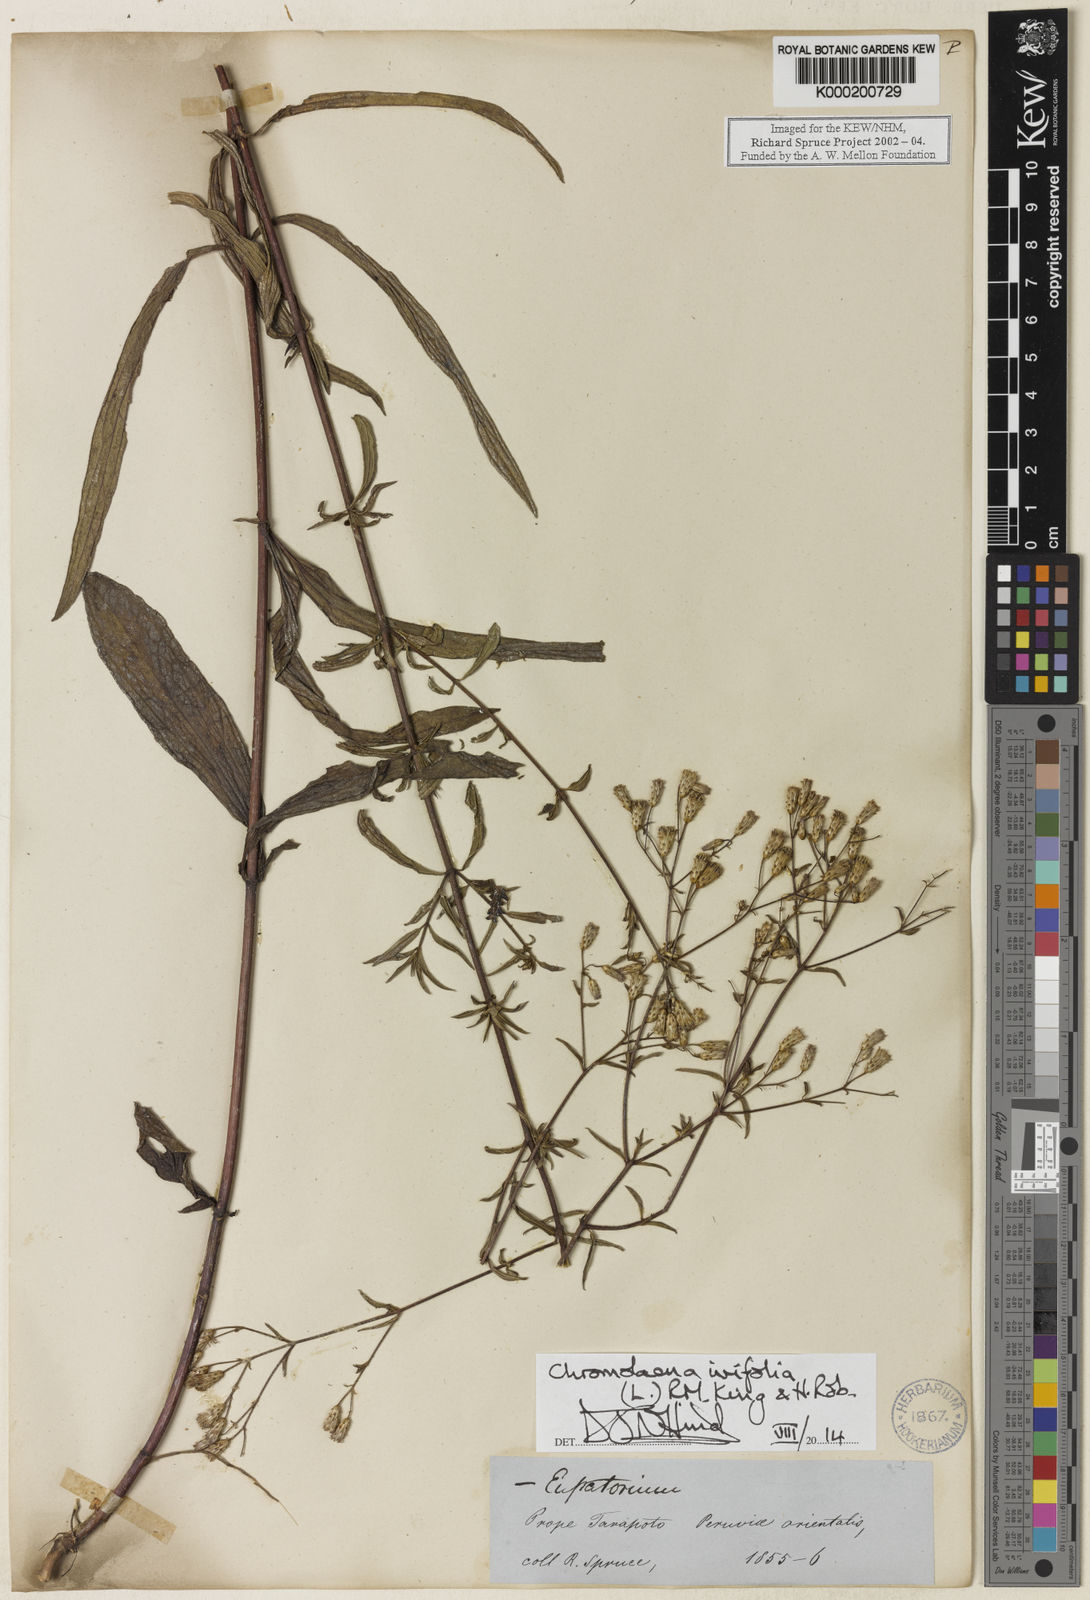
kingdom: Plantae
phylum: Tracheophyta
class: Magnoliopsida
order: Asterales
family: Asteraceae
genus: Chromolaena
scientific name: Chromolaena ivifolia
